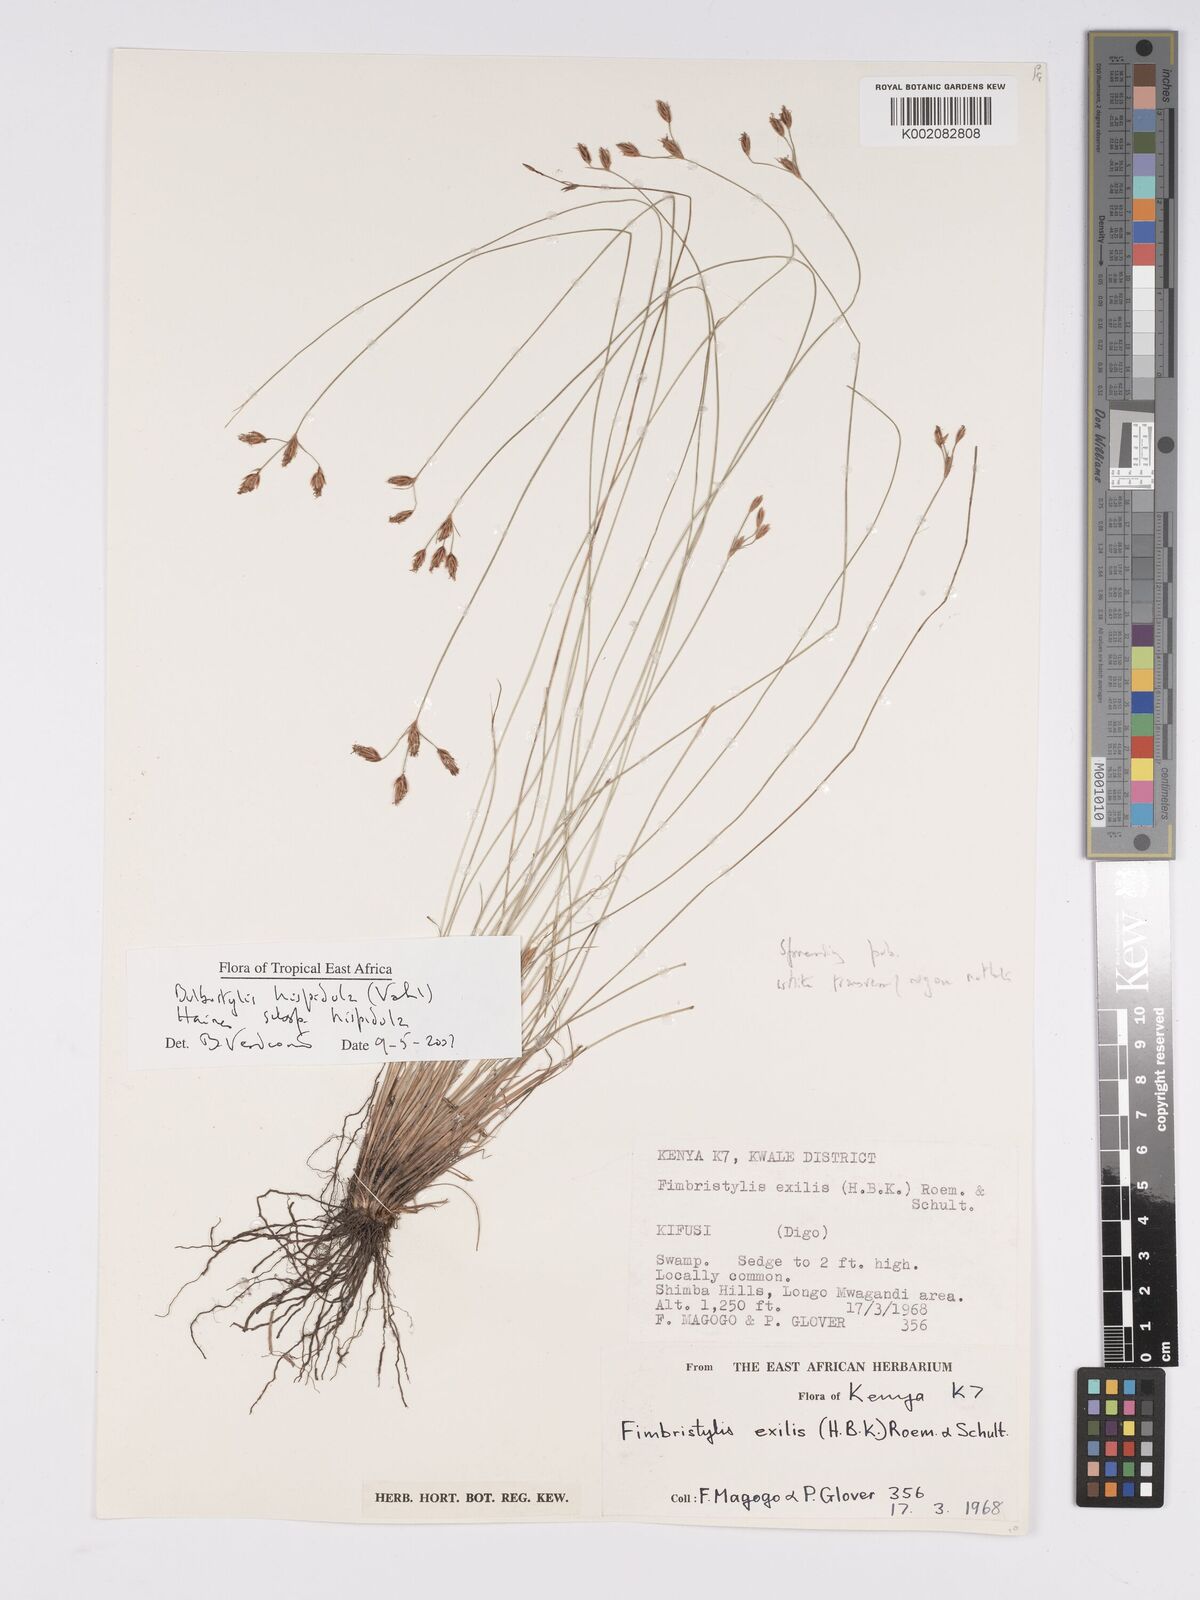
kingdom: Plantae
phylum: Tracheophyta
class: Liliopsida
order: Poales
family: Cyperaceae
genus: Bulbostylis
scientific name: Bulbostylis hispidula
